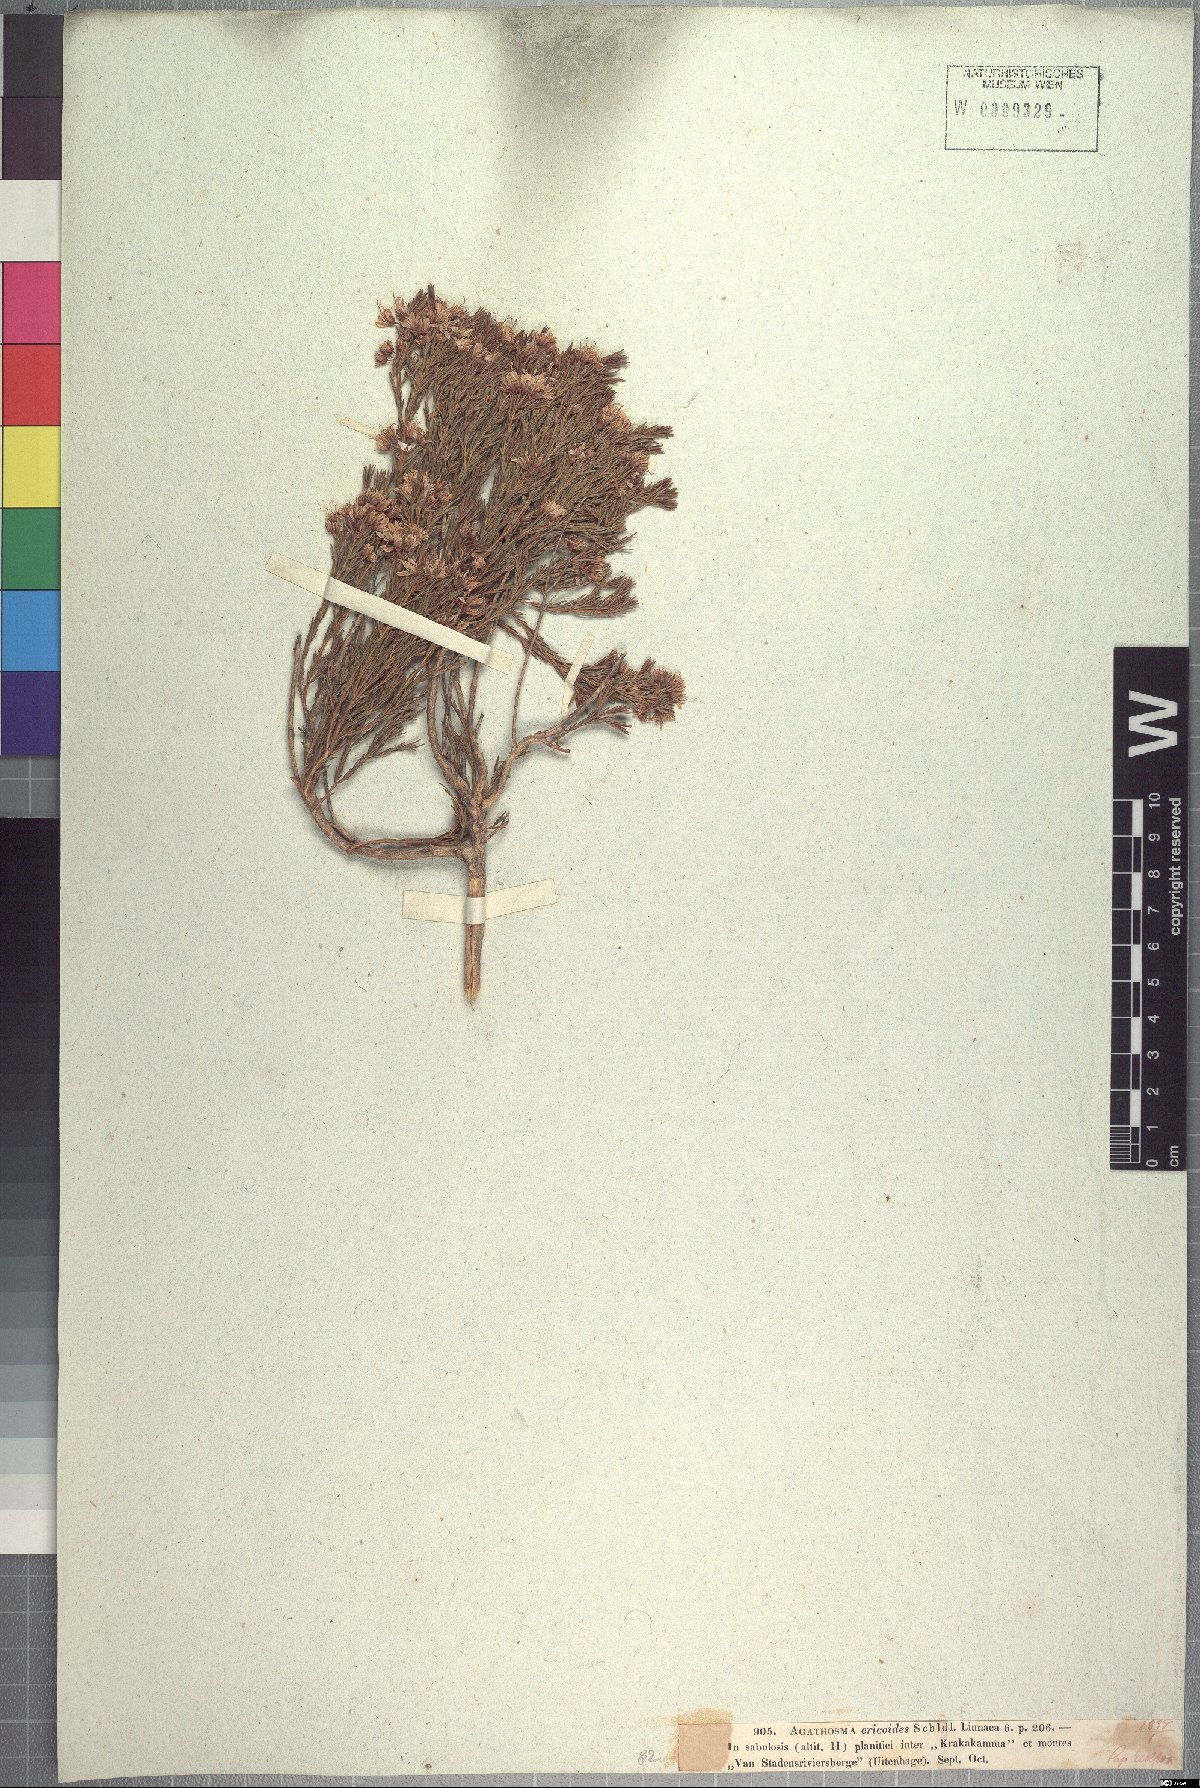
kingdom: Plantae
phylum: Tracheophyta
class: Magnoliopsida
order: Sapindales
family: Rutaceae
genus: Agathosma
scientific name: Agathosma capensis
